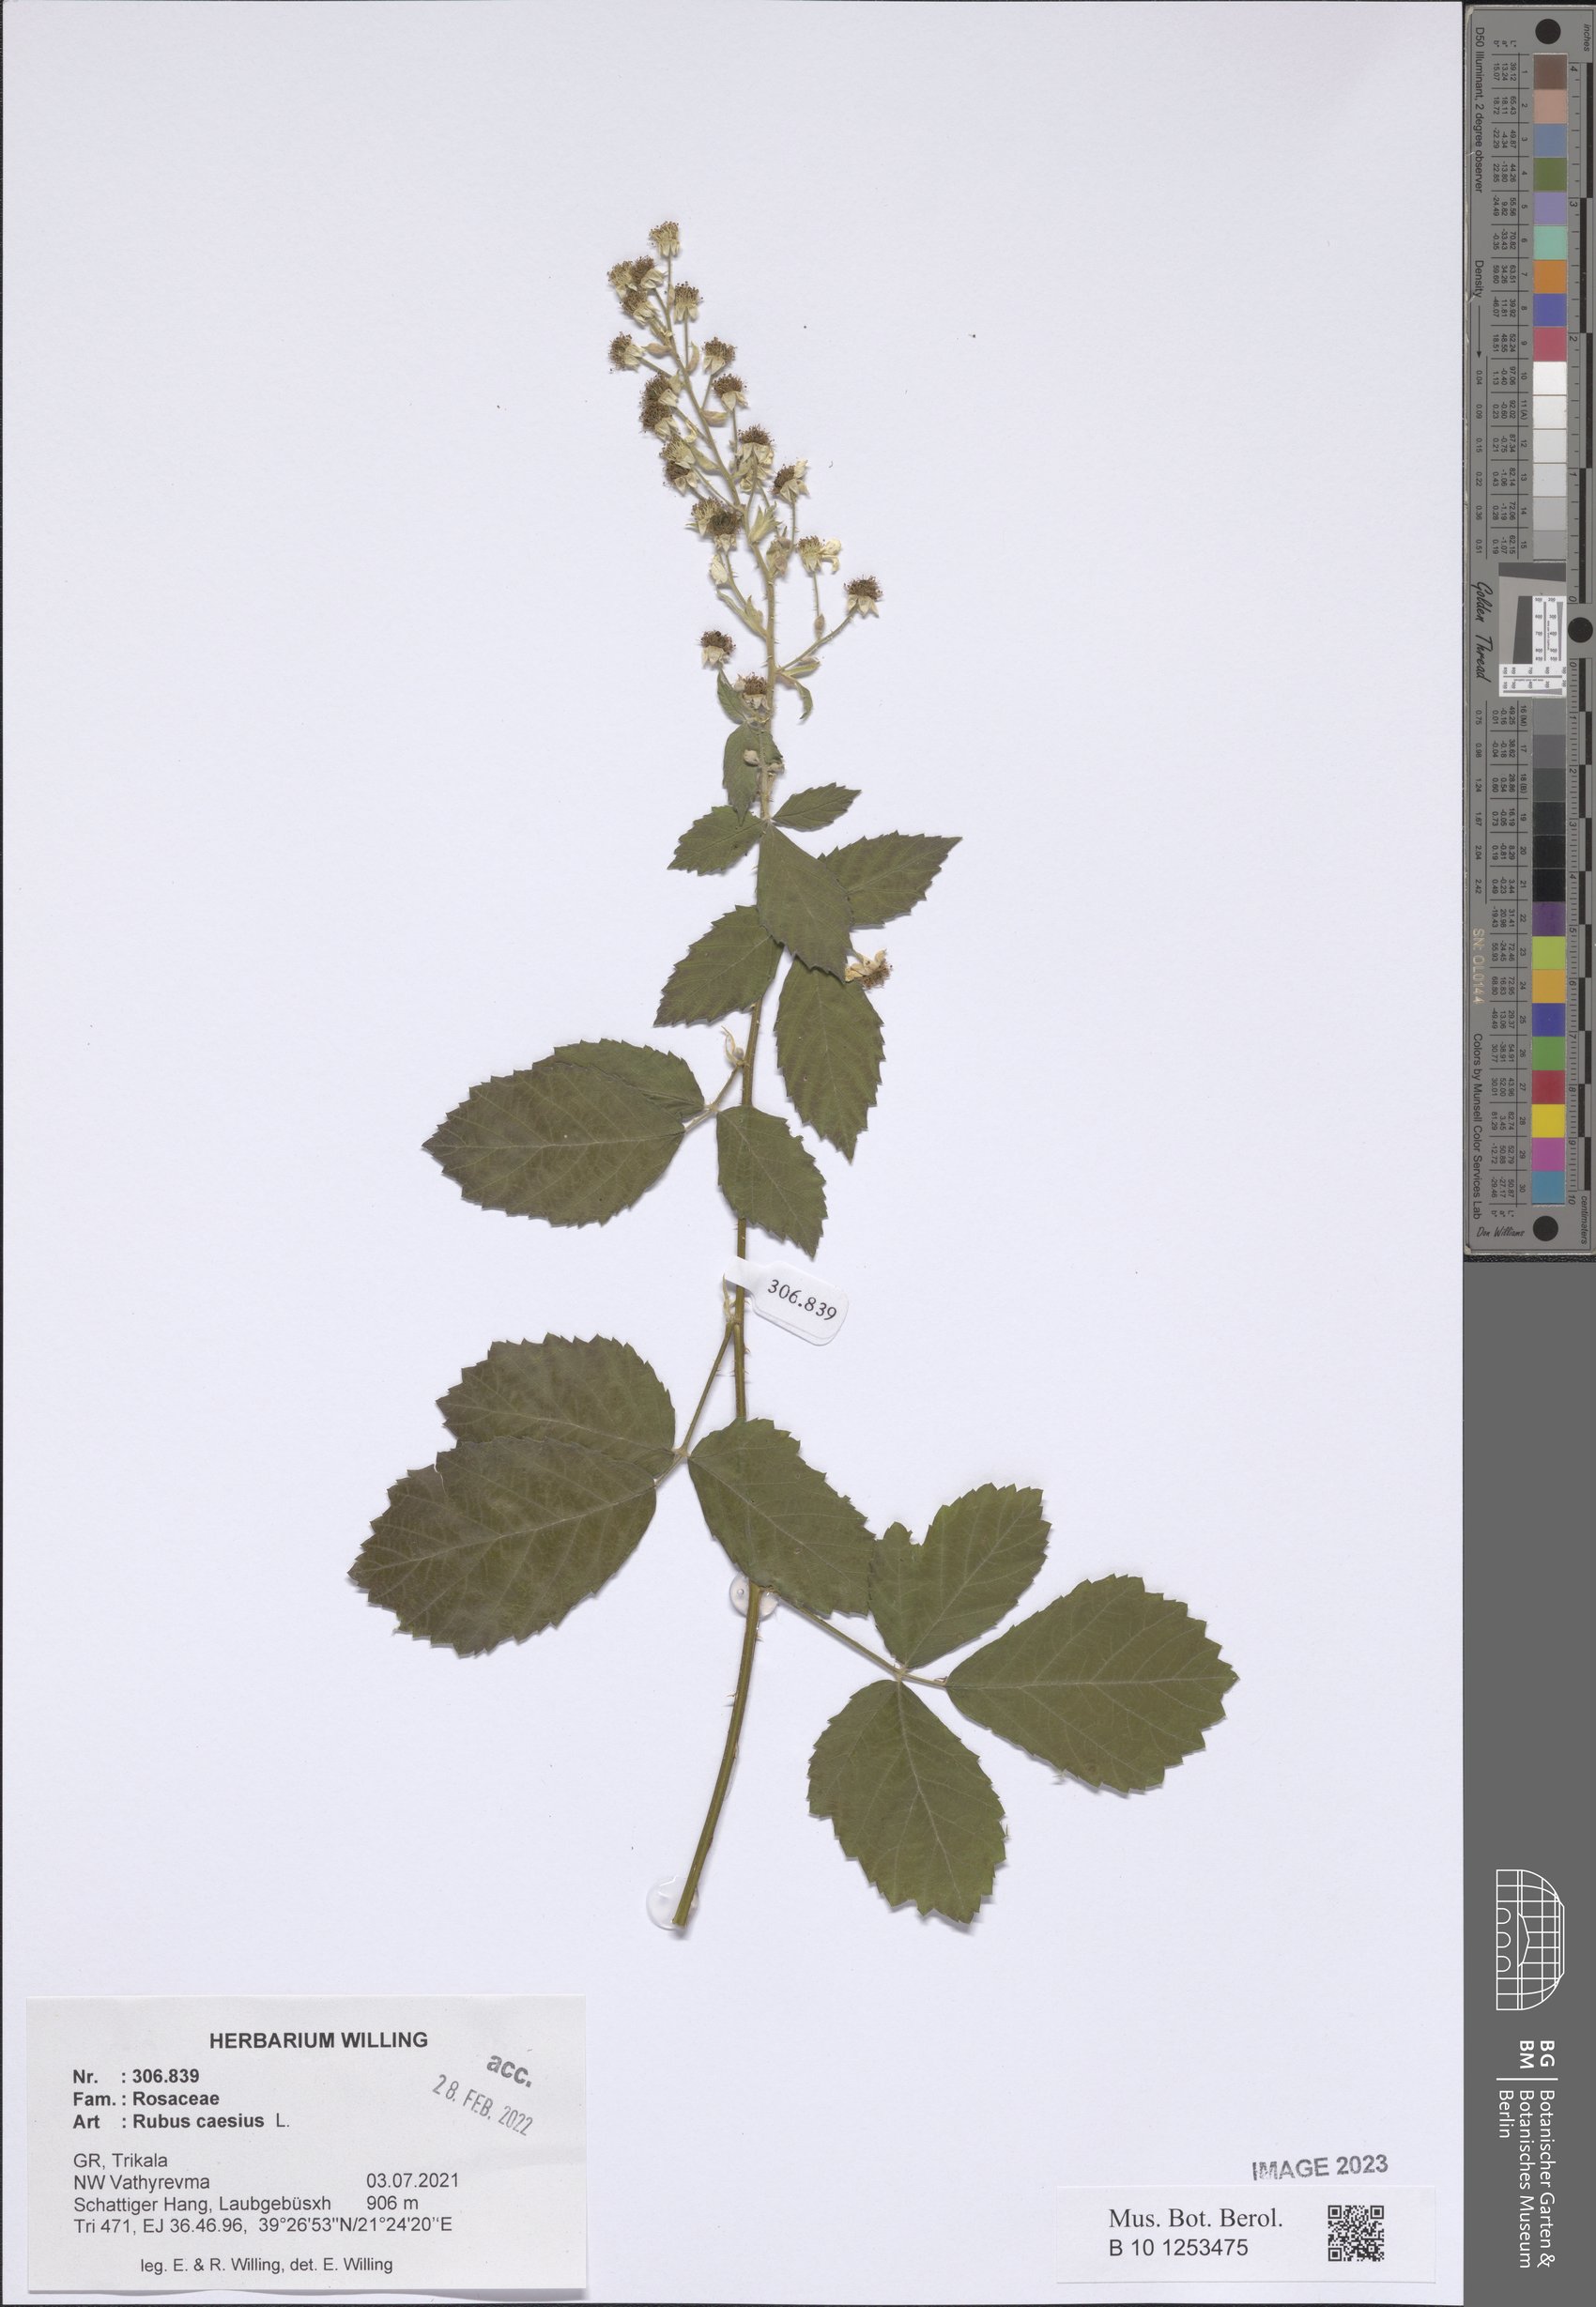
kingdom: Plantae
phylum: Tracheophyta
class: Magnoliopsida
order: Rosales
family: Rosaceae
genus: Rubus
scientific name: Rubus caesius
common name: Dewberry
